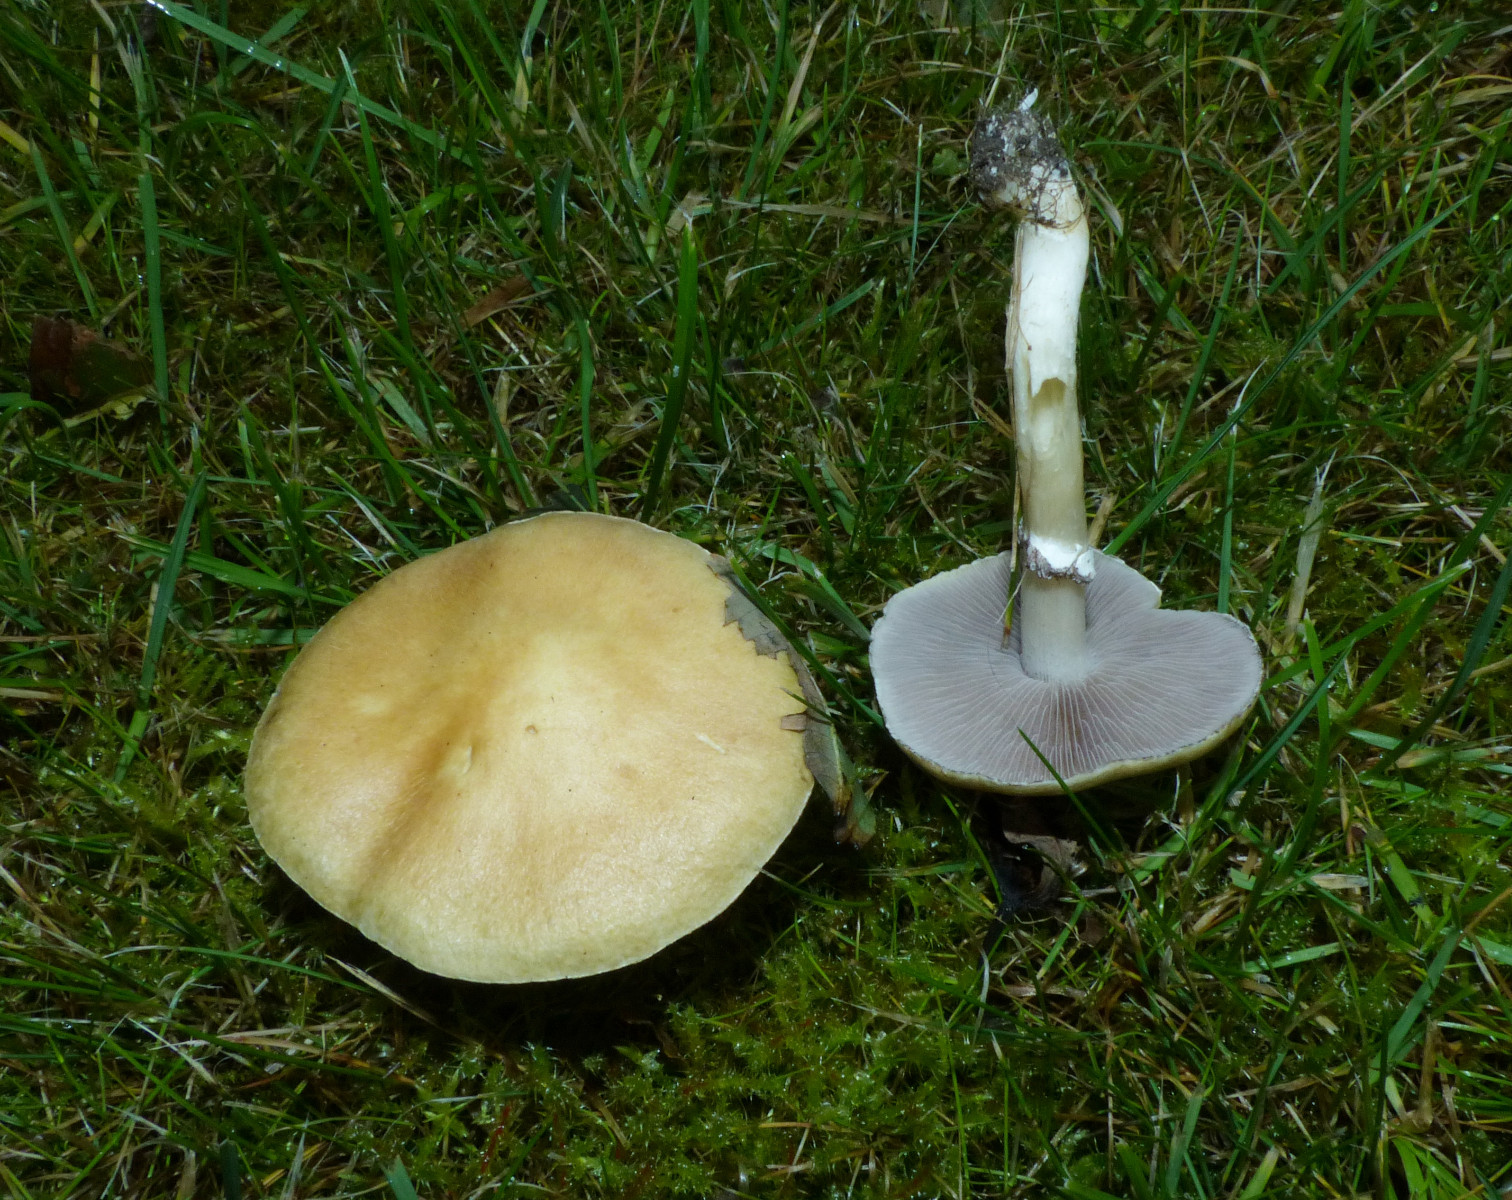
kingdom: Fungi
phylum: Basidiomycota
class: Agaricomycetes
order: Agaricales
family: Hymenogastraceae
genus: Psilocybe
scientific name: Psilocybe coronilla
